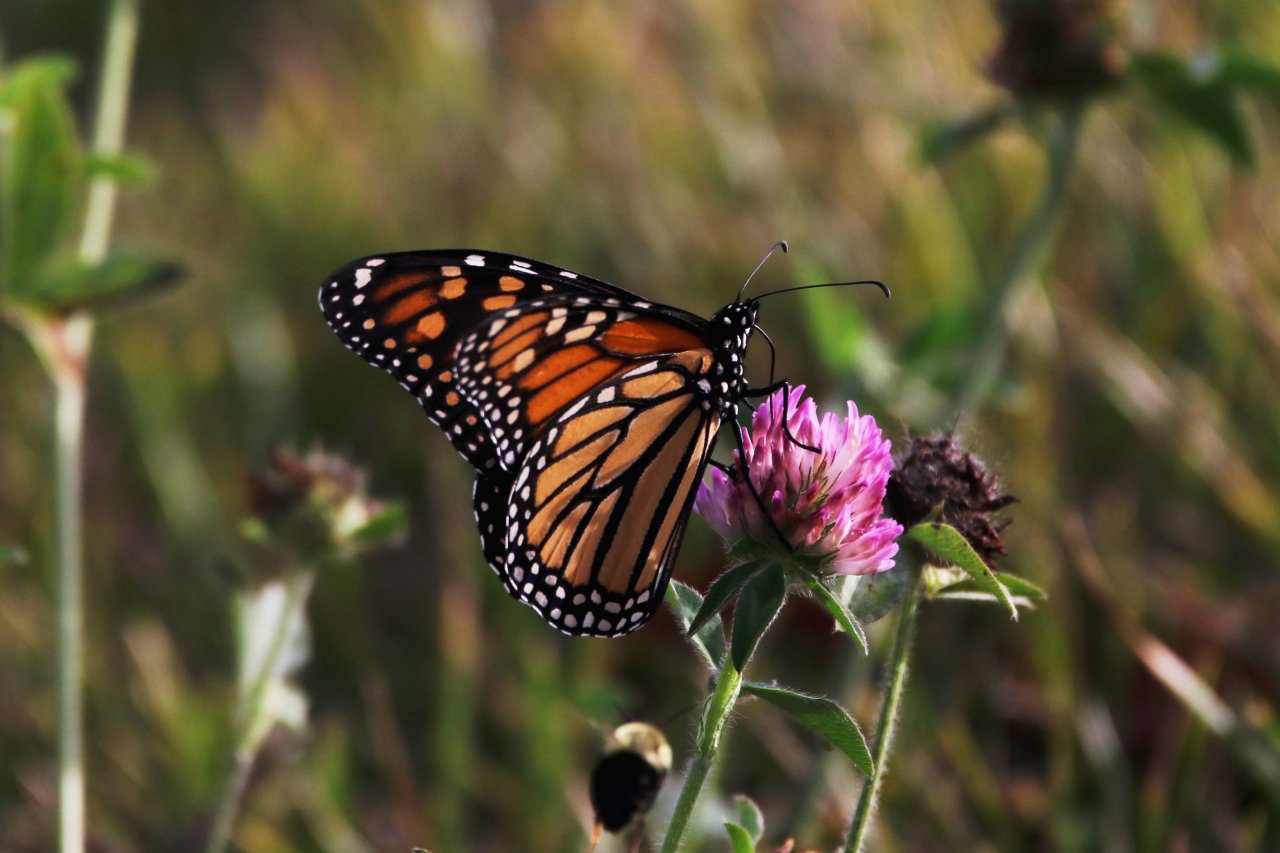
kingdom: Animalia
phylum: Arthropoda
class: Insecta
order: Lepidoptera
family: Nymphalidae
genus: Danaus
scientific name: Danaus plexippus
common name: Monarch
